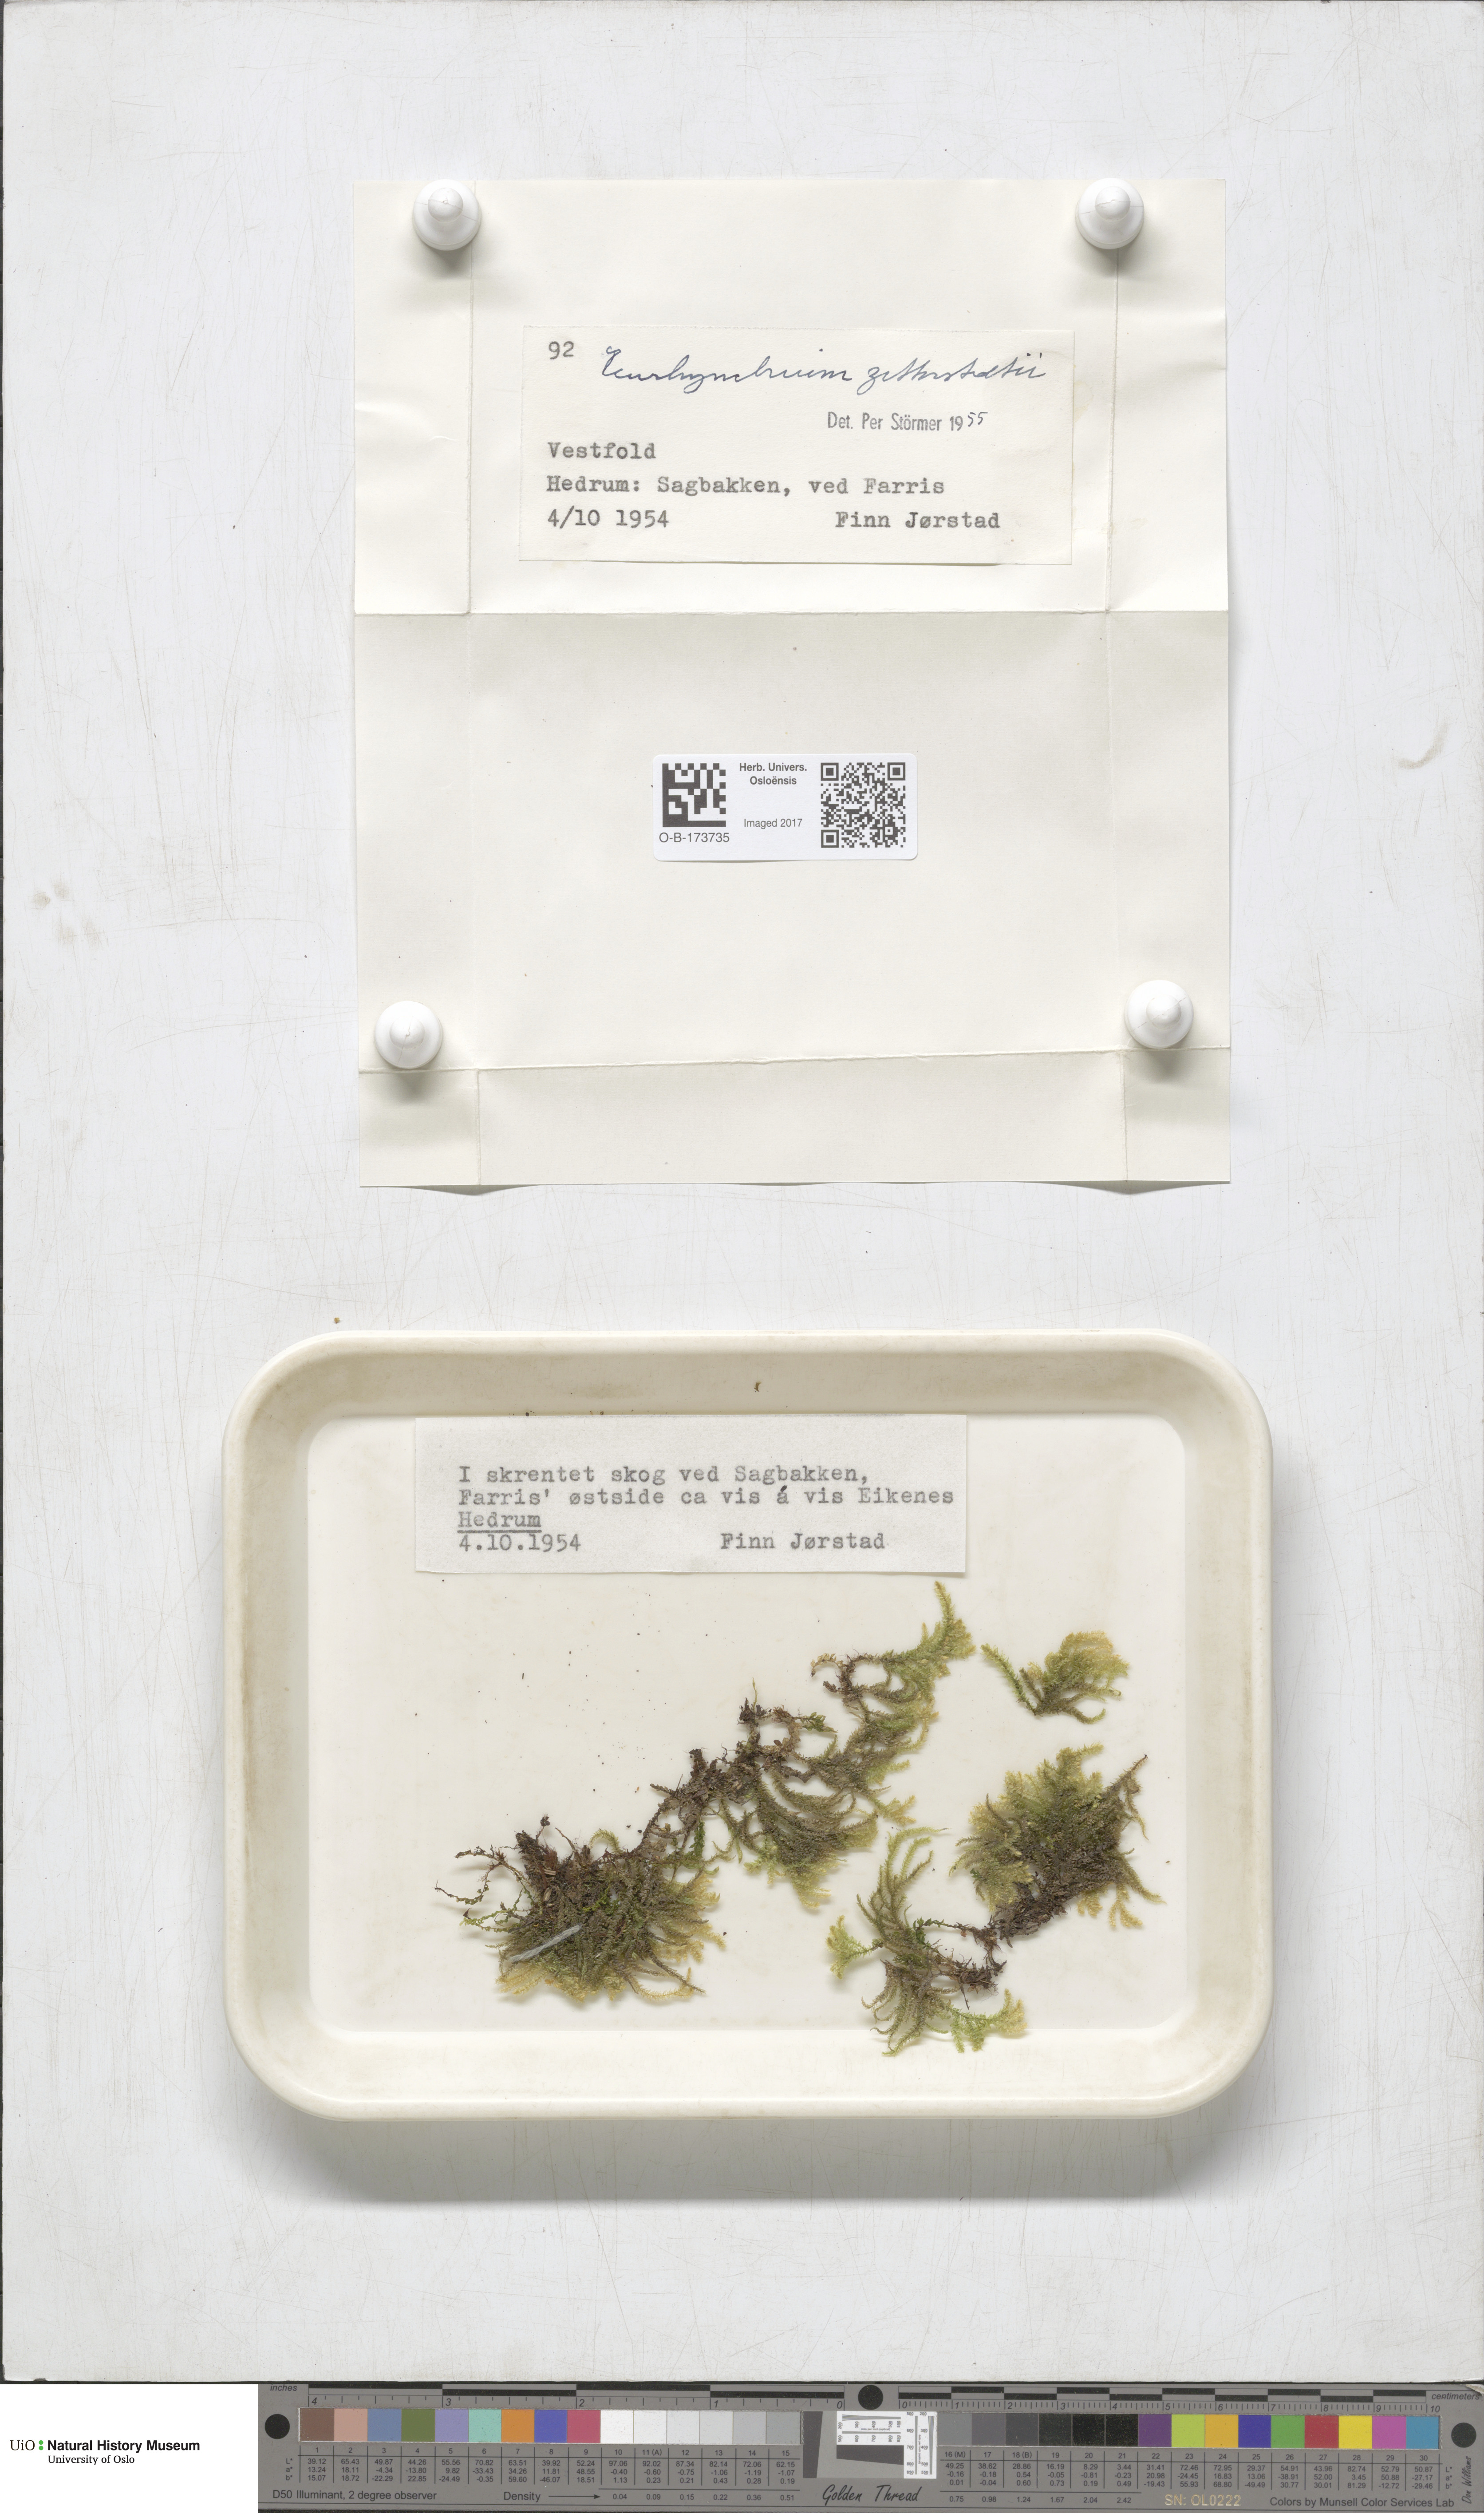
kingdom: Plantae
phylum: Bryophyta
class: Bryopsida
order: Hypnales
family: Brachytheciaceae
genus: Eurhynchium
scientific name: Eurhynchium angustirete
